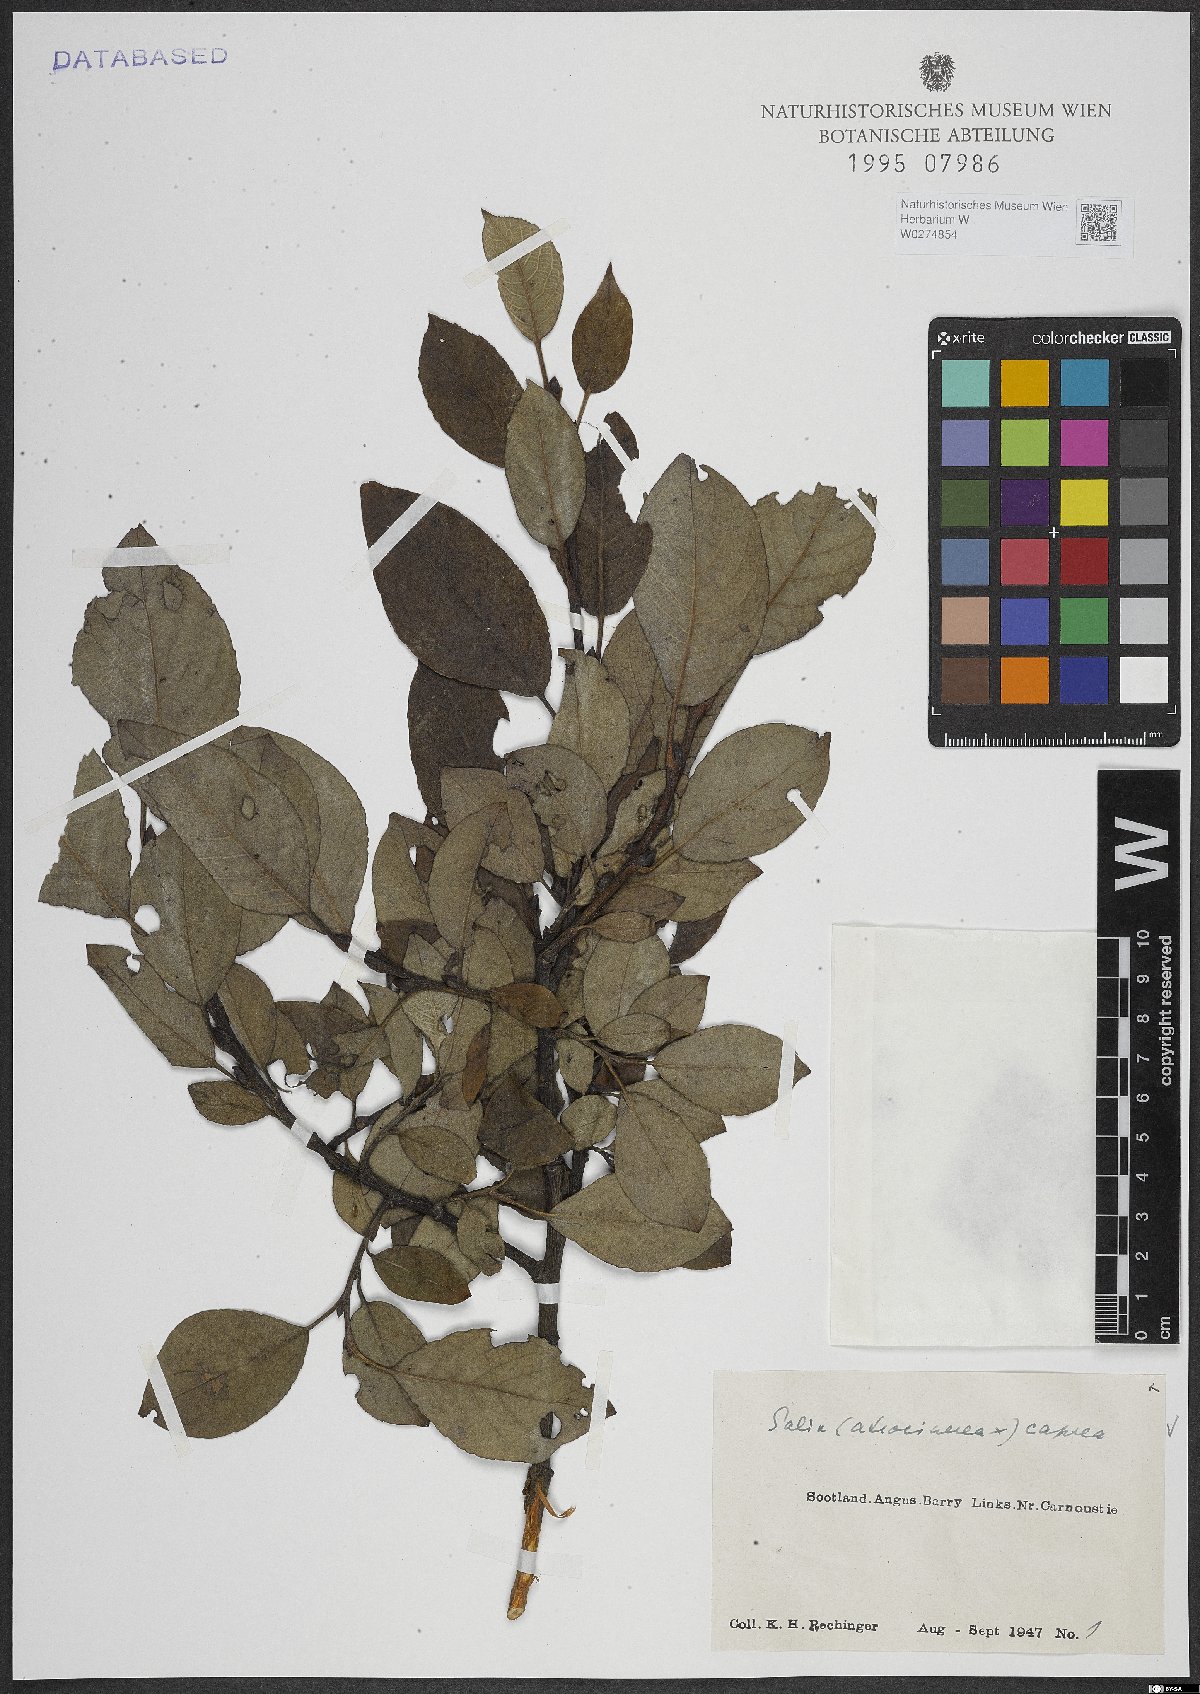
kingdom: Plantae
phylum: Tracheophyta
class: Magnoliopsida
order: Malpighiales
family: Salicaceae
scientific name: Salicaceae
